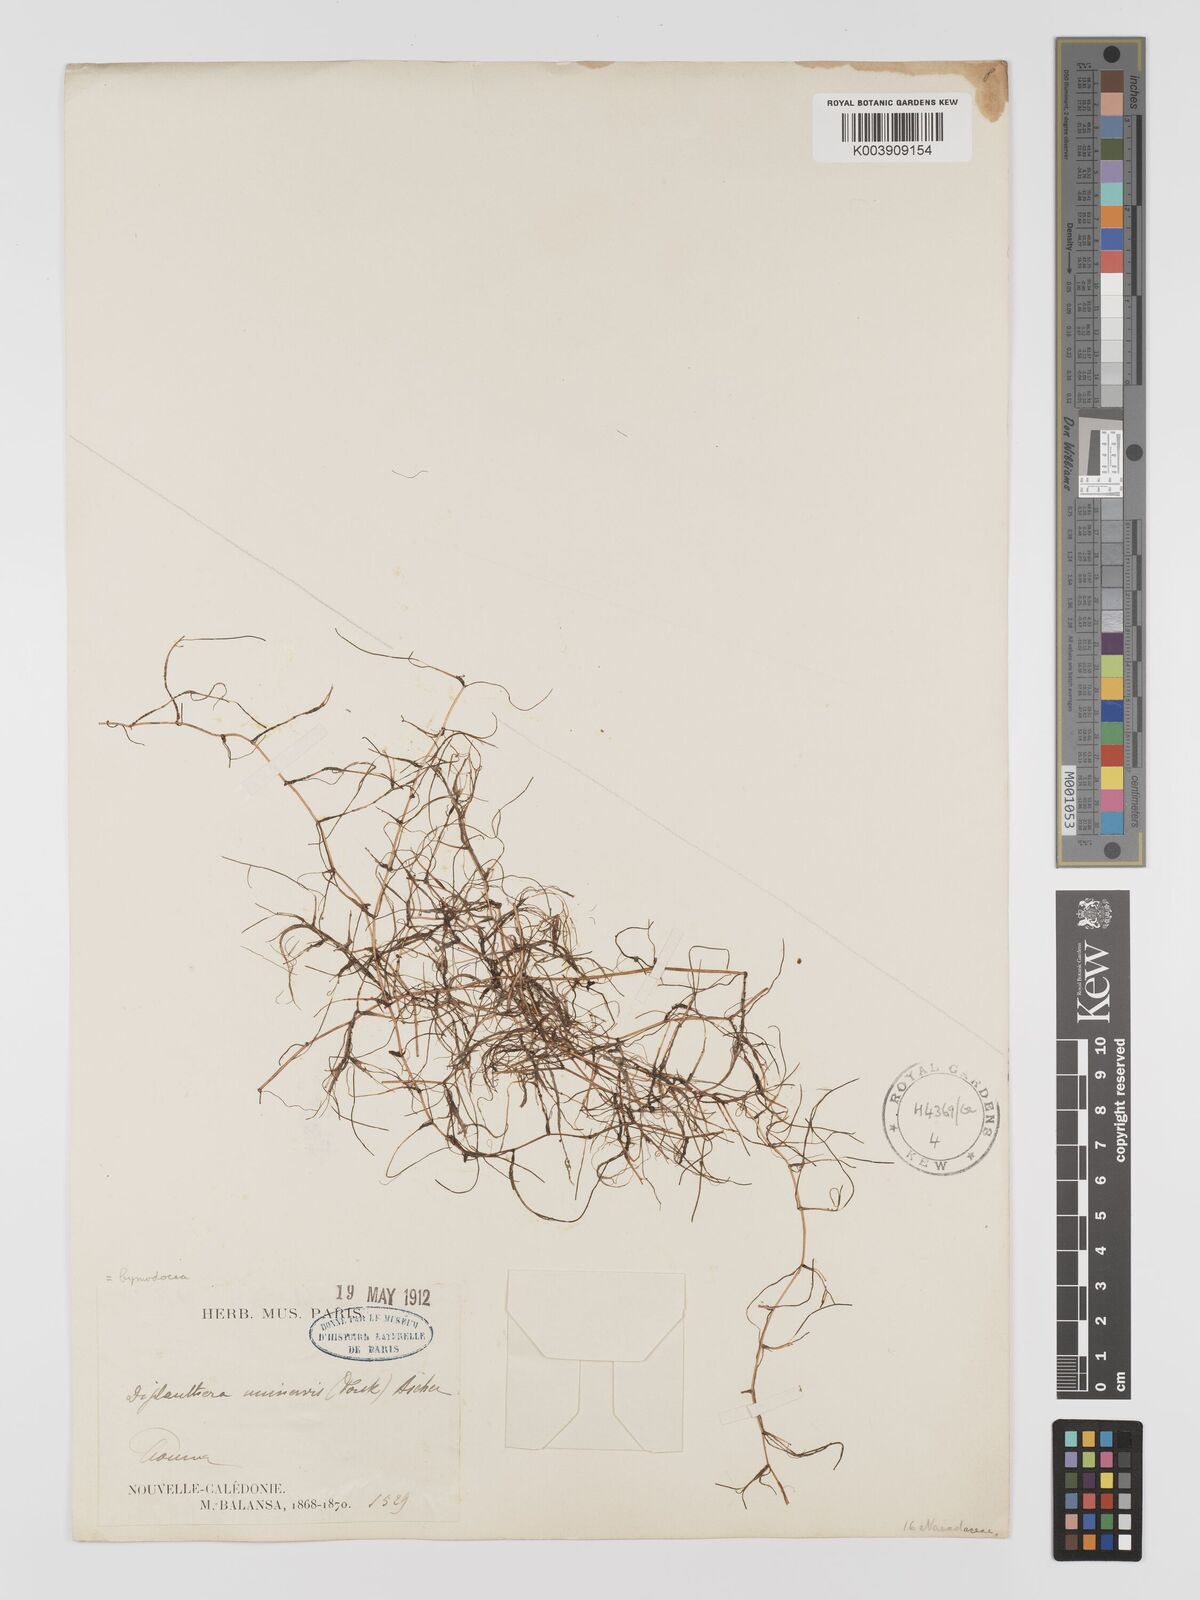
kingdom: Plantae
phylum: Tracheophyta
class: Liliopsida
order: Alismatales
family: Cymodoceaceae
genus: Halodule
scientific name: Halodule uninervis
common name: Narrowleaf seagrass
